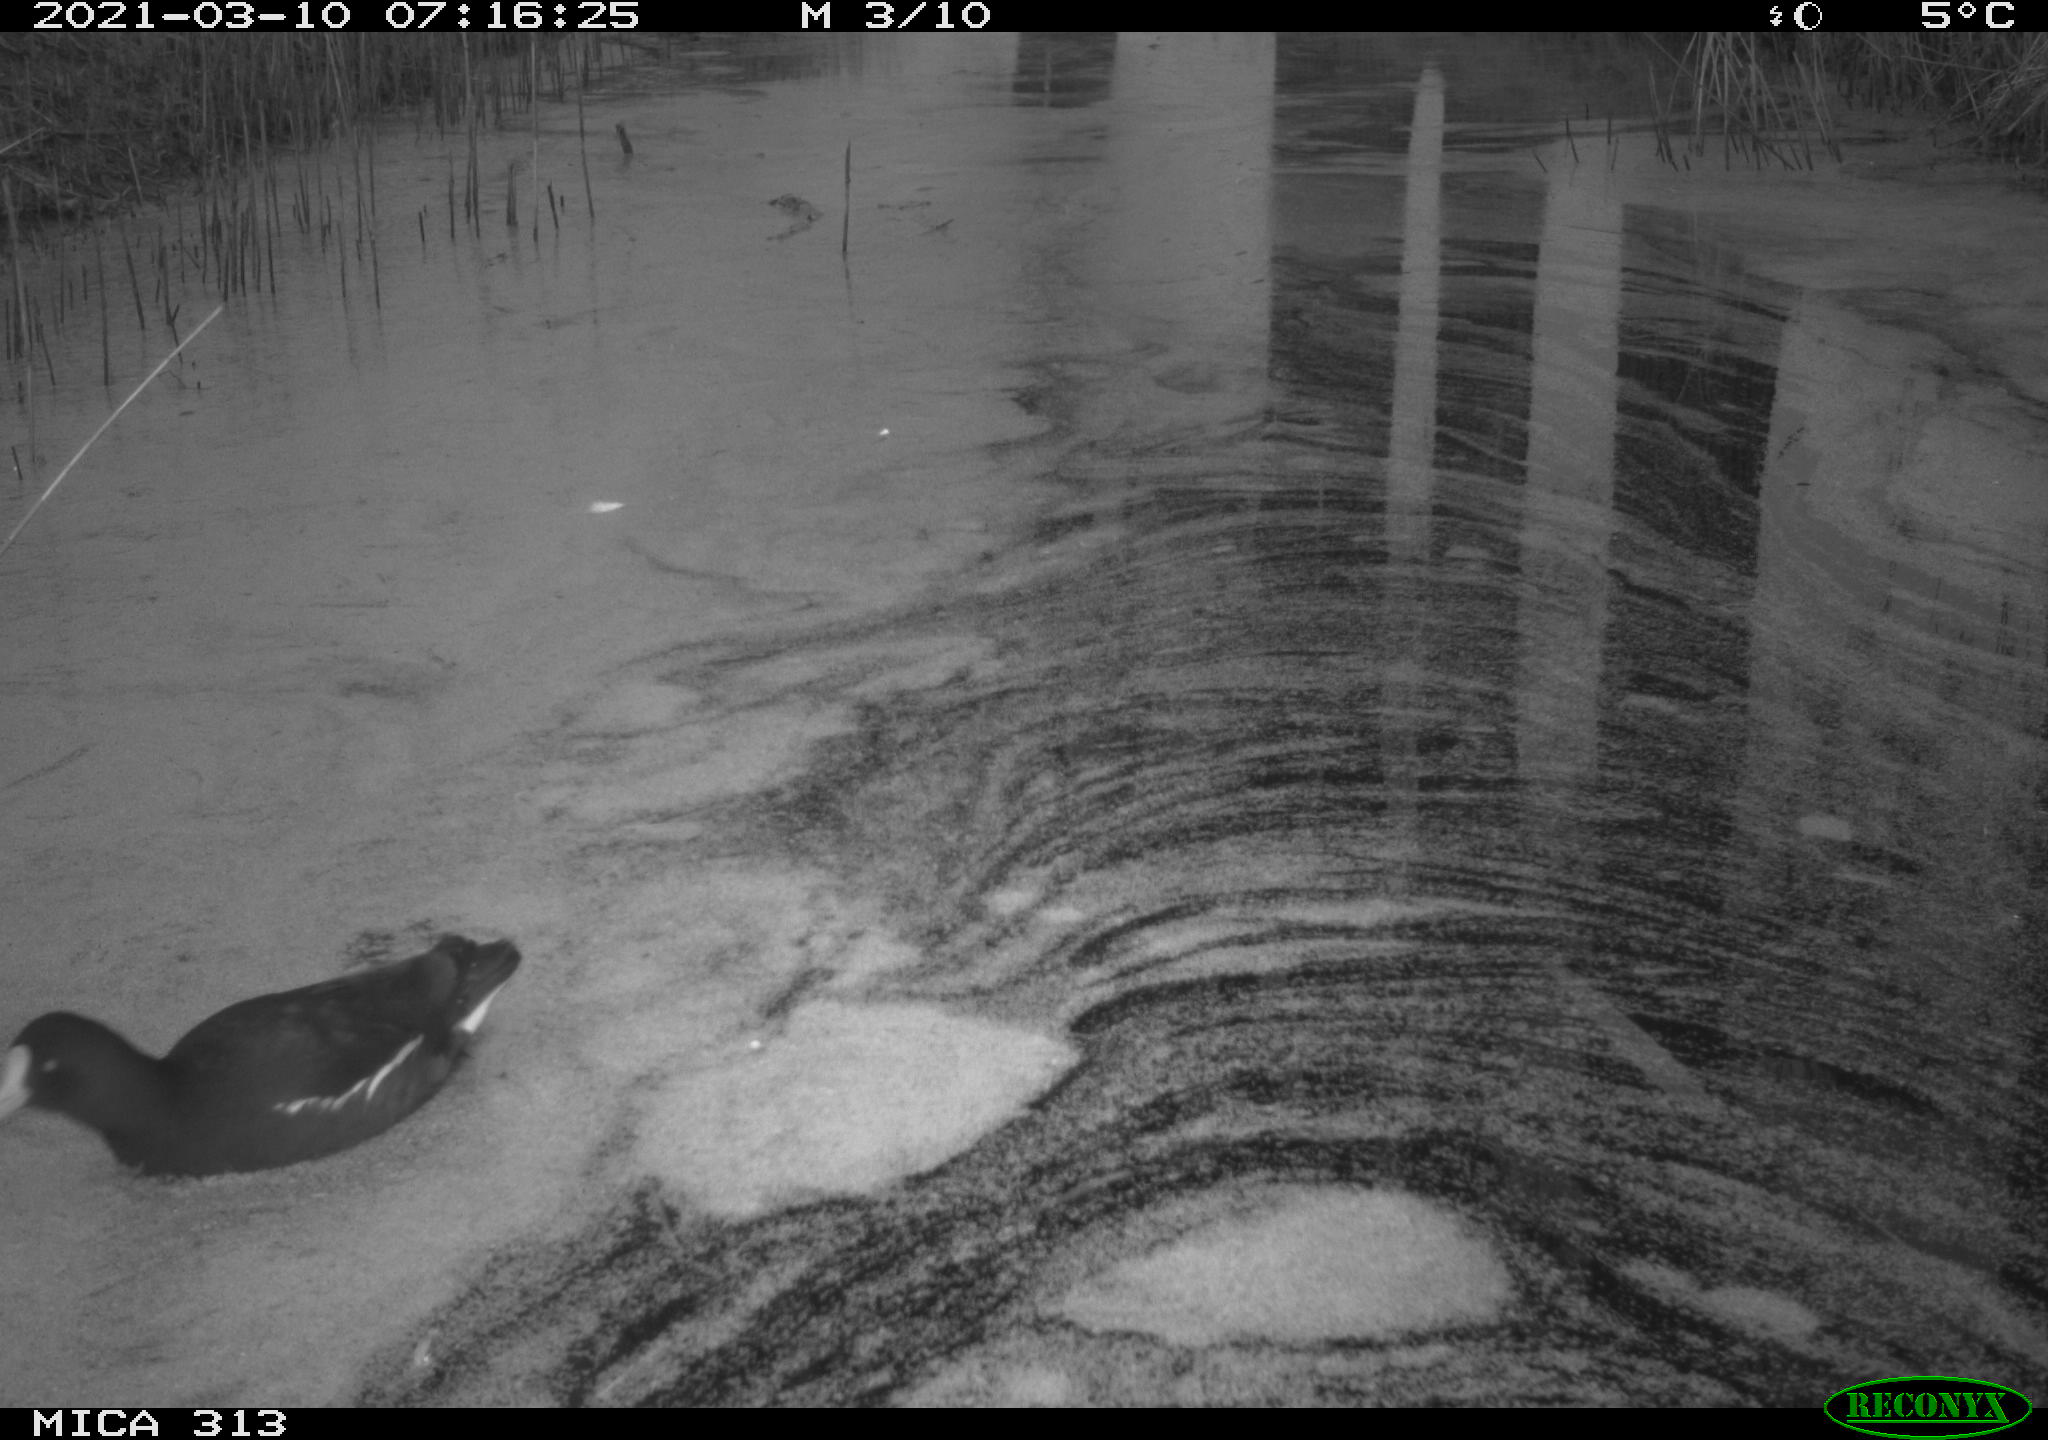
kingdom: Animalia
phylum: Chordata
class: Aves
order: Gruiformes
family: Rallidae
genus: Gallinula
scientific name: Gallinula chloropus
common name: Common moorhen
